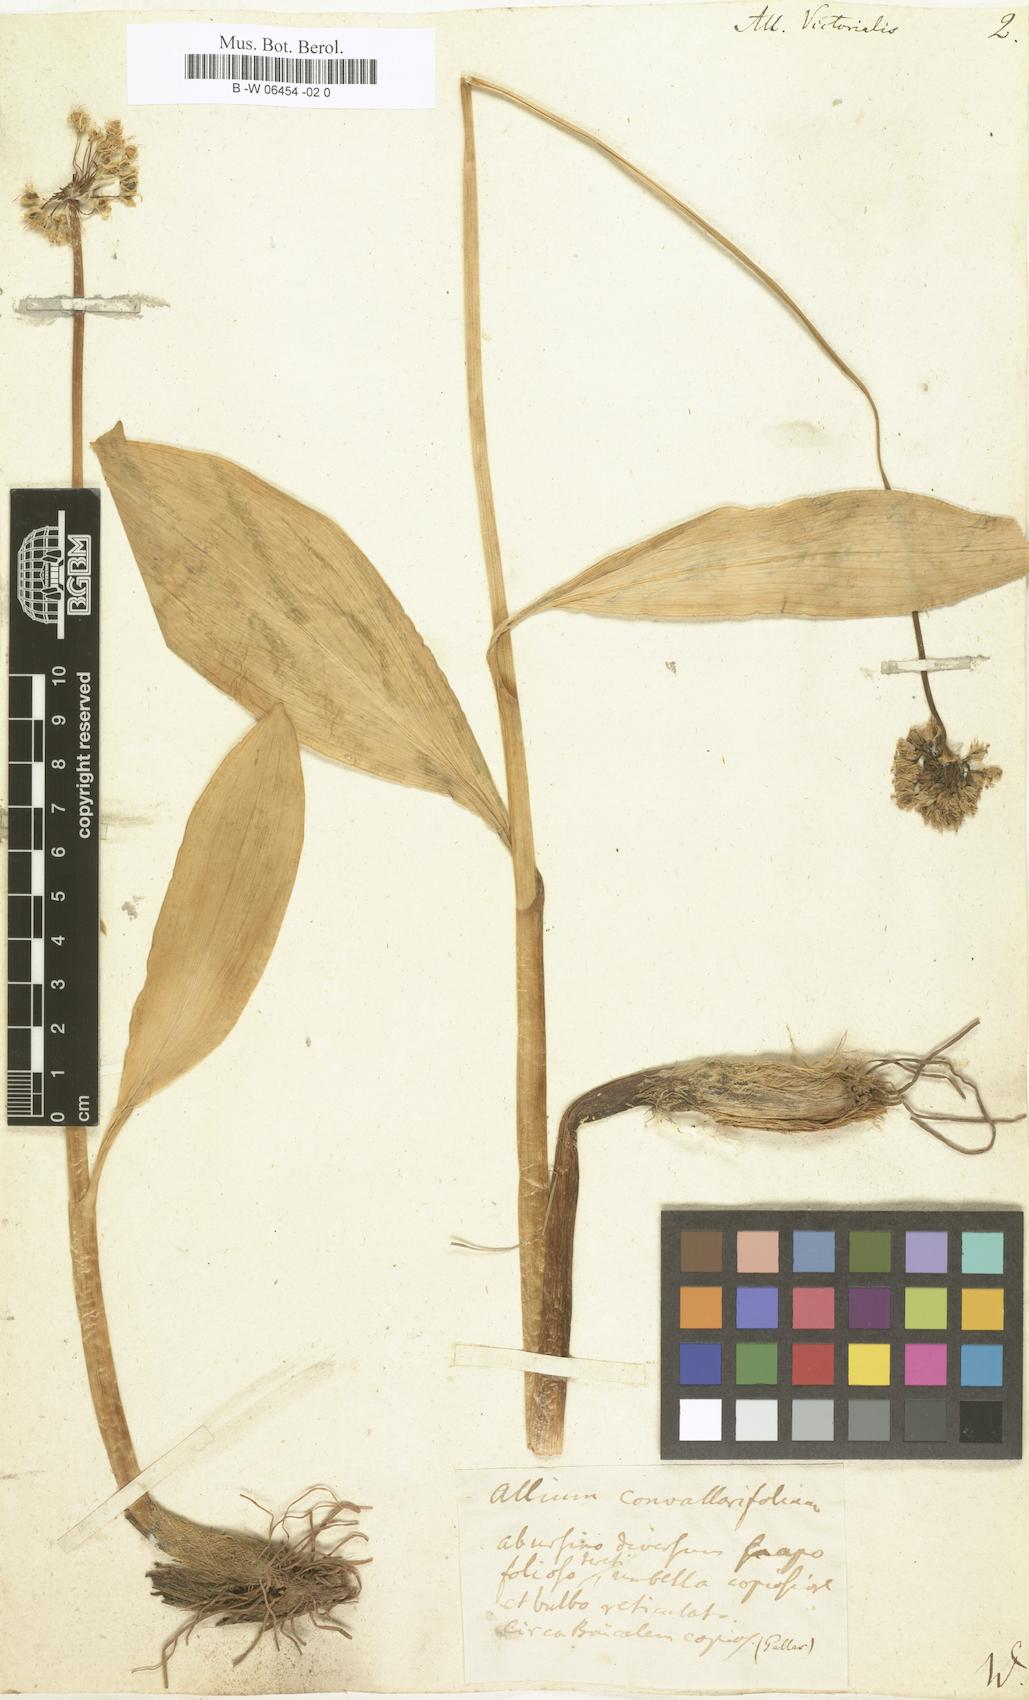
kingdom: Plantae
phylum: Tracheophyta
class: Liliopsida
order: Asparagales
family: Amaryllidaceae
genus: Allium
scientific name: Allium victorialis
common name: Alpine leek
